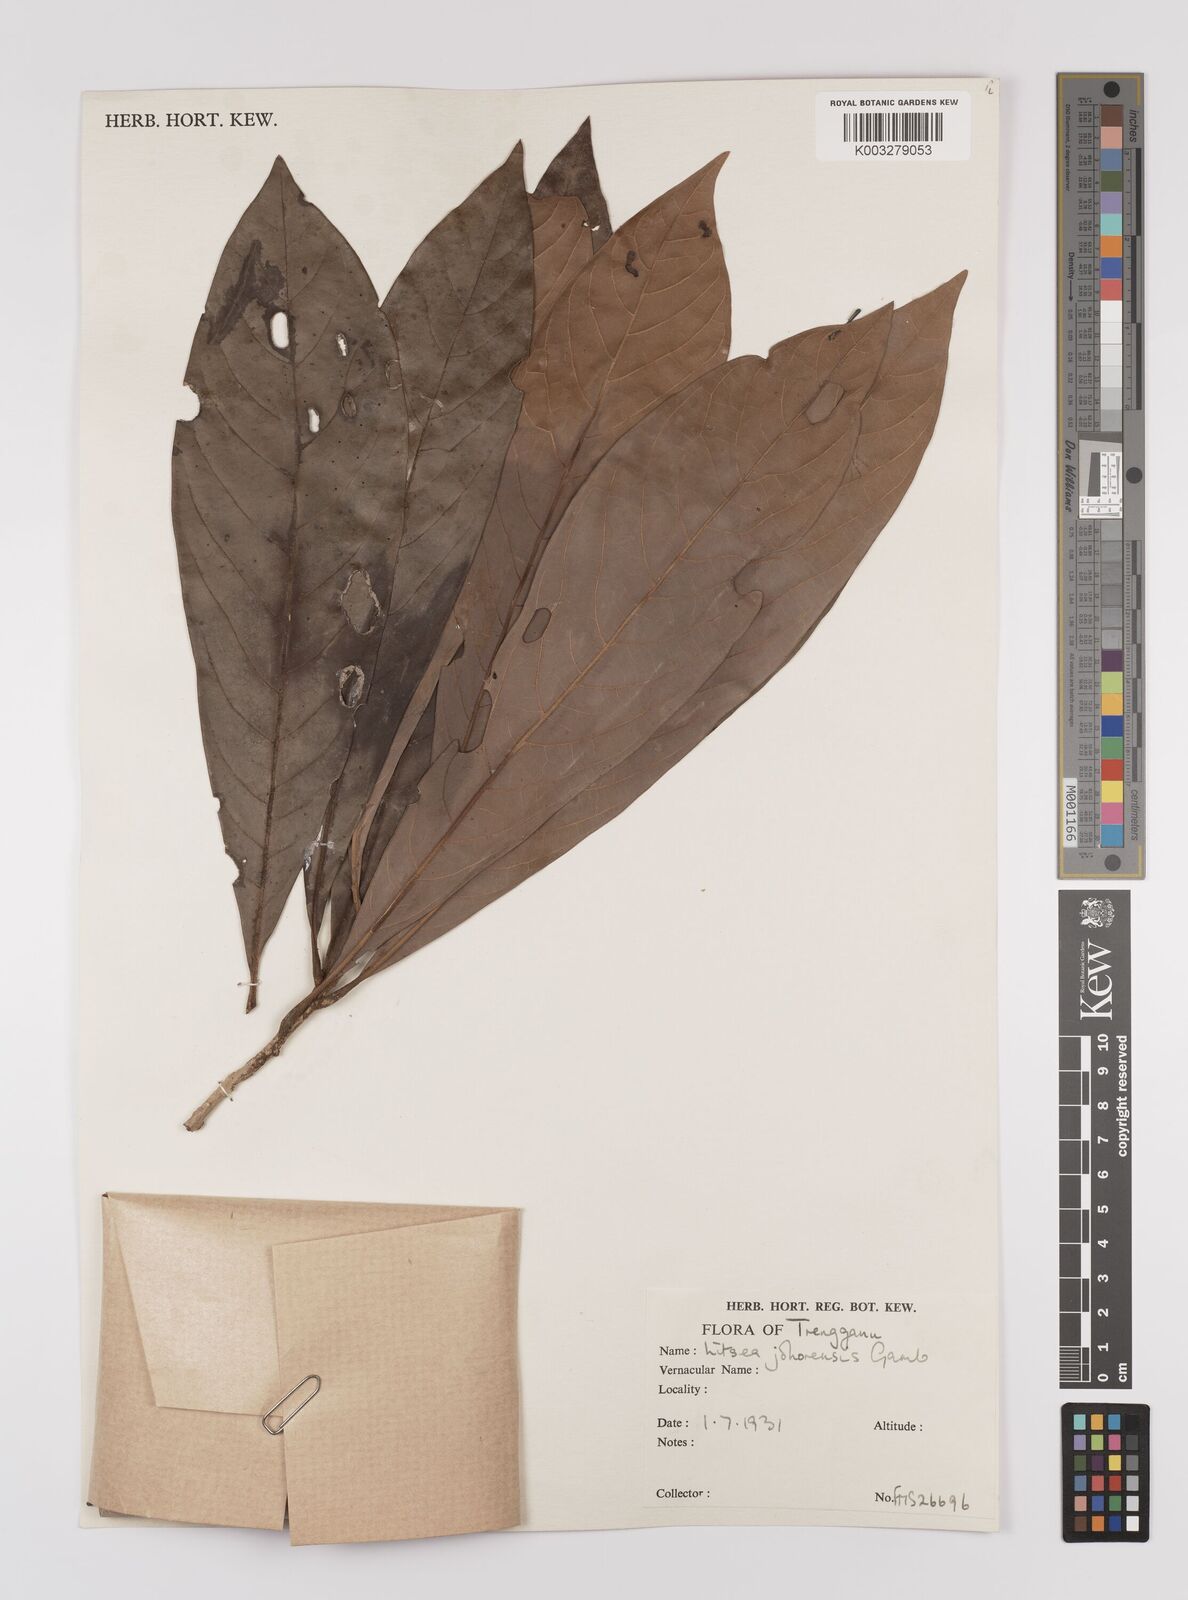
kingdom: Plantae
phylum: Tracheophyta
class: Magnoliopsida
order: Laurales
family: Lauraceae
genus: Litsea
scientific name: Litsea johorensis
